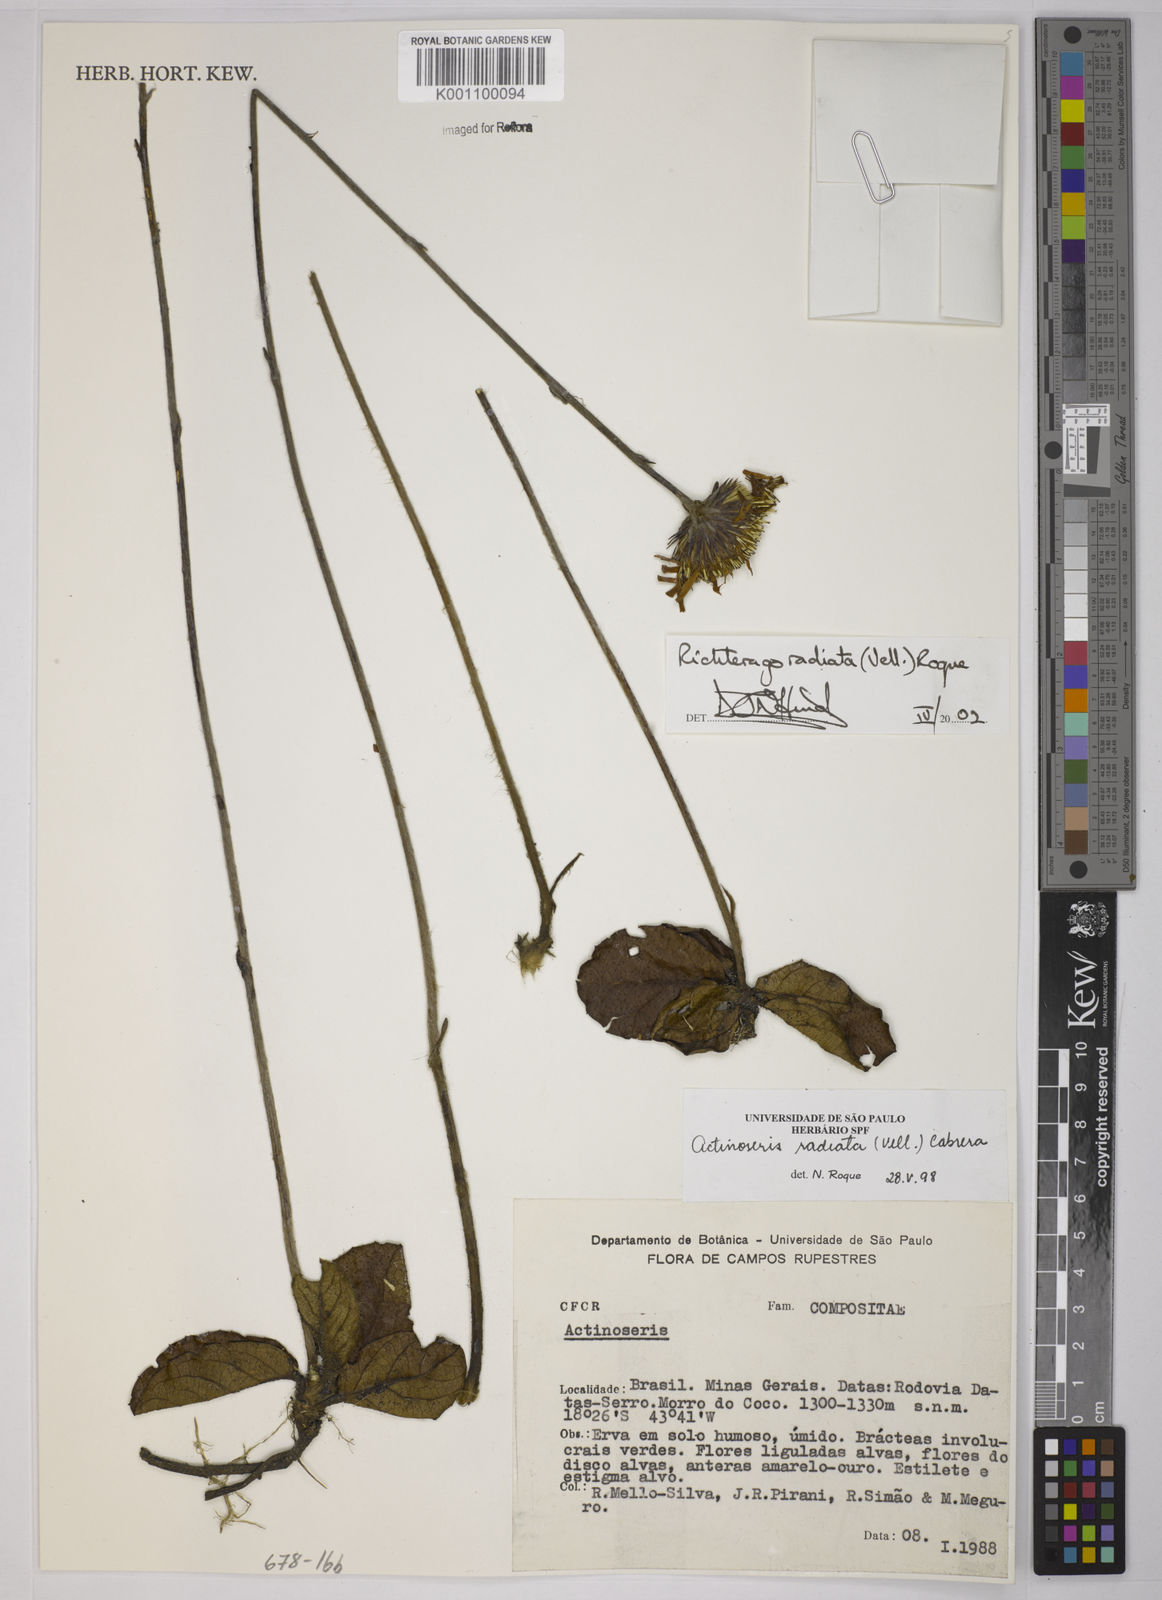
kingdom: Plantae
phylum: Tracheophyta
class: Liliopsida
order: Poales
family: Poaceae
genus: Panicum
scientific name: Panicum
